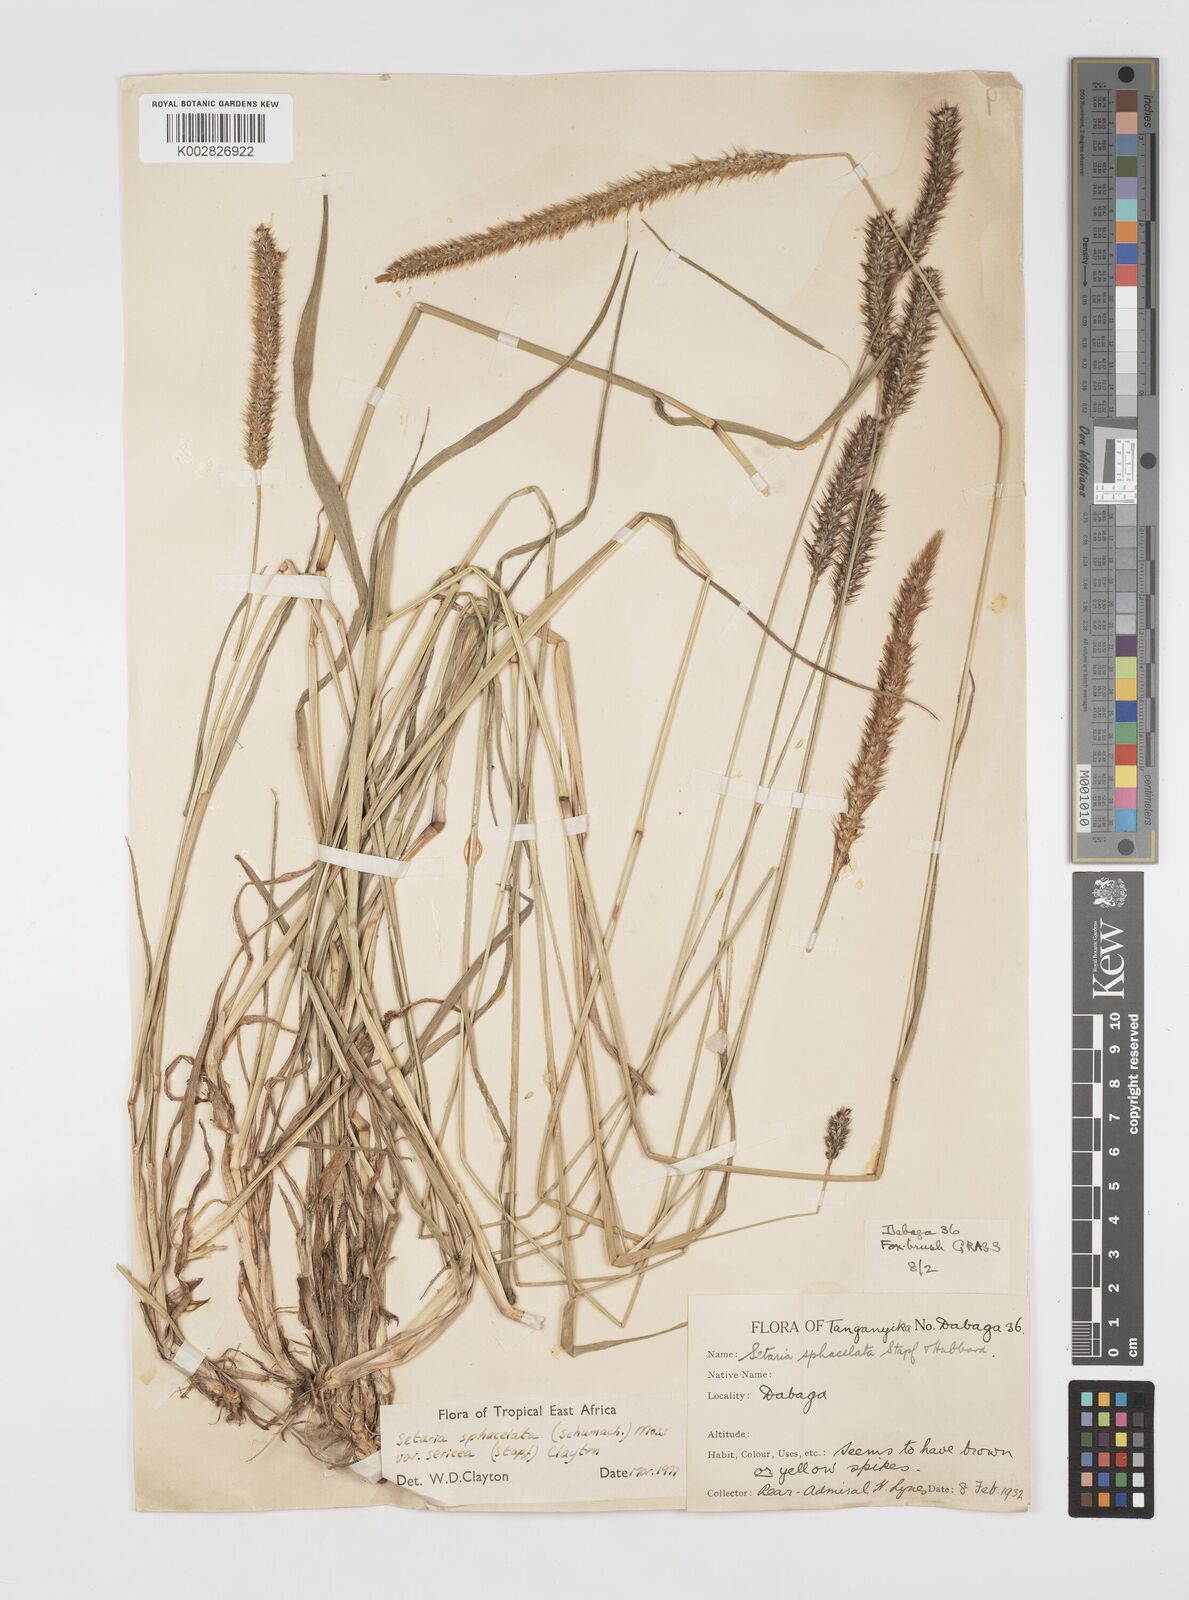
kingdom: Plantae
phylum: Tracheophyta
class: Liliopsida
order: Poales
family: Poaceae
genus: Setaria
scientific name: Setaria sphacelata
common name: African bristlegrass
